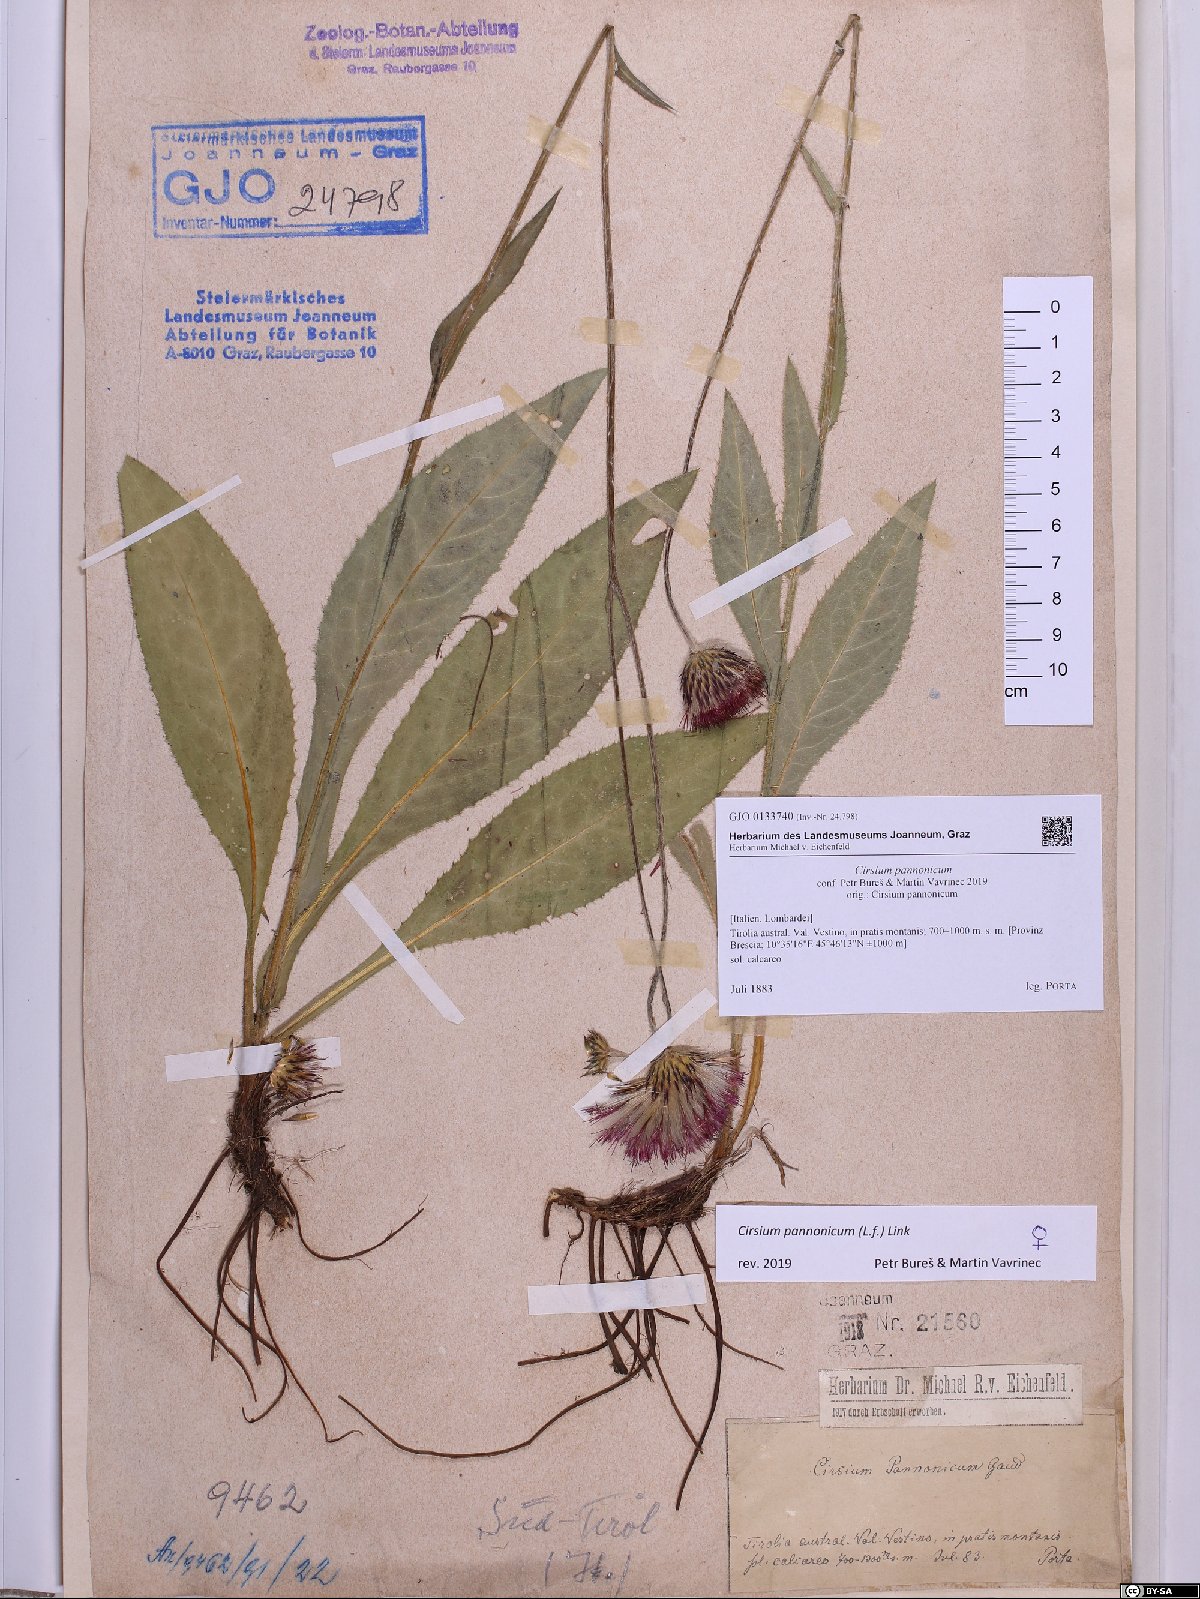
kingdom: Plantae
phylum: Tracheophyta
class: Magnoliopsida
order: Asterales
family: Asteraceae
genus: Cirsium
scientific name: Cirsium pannonicum
